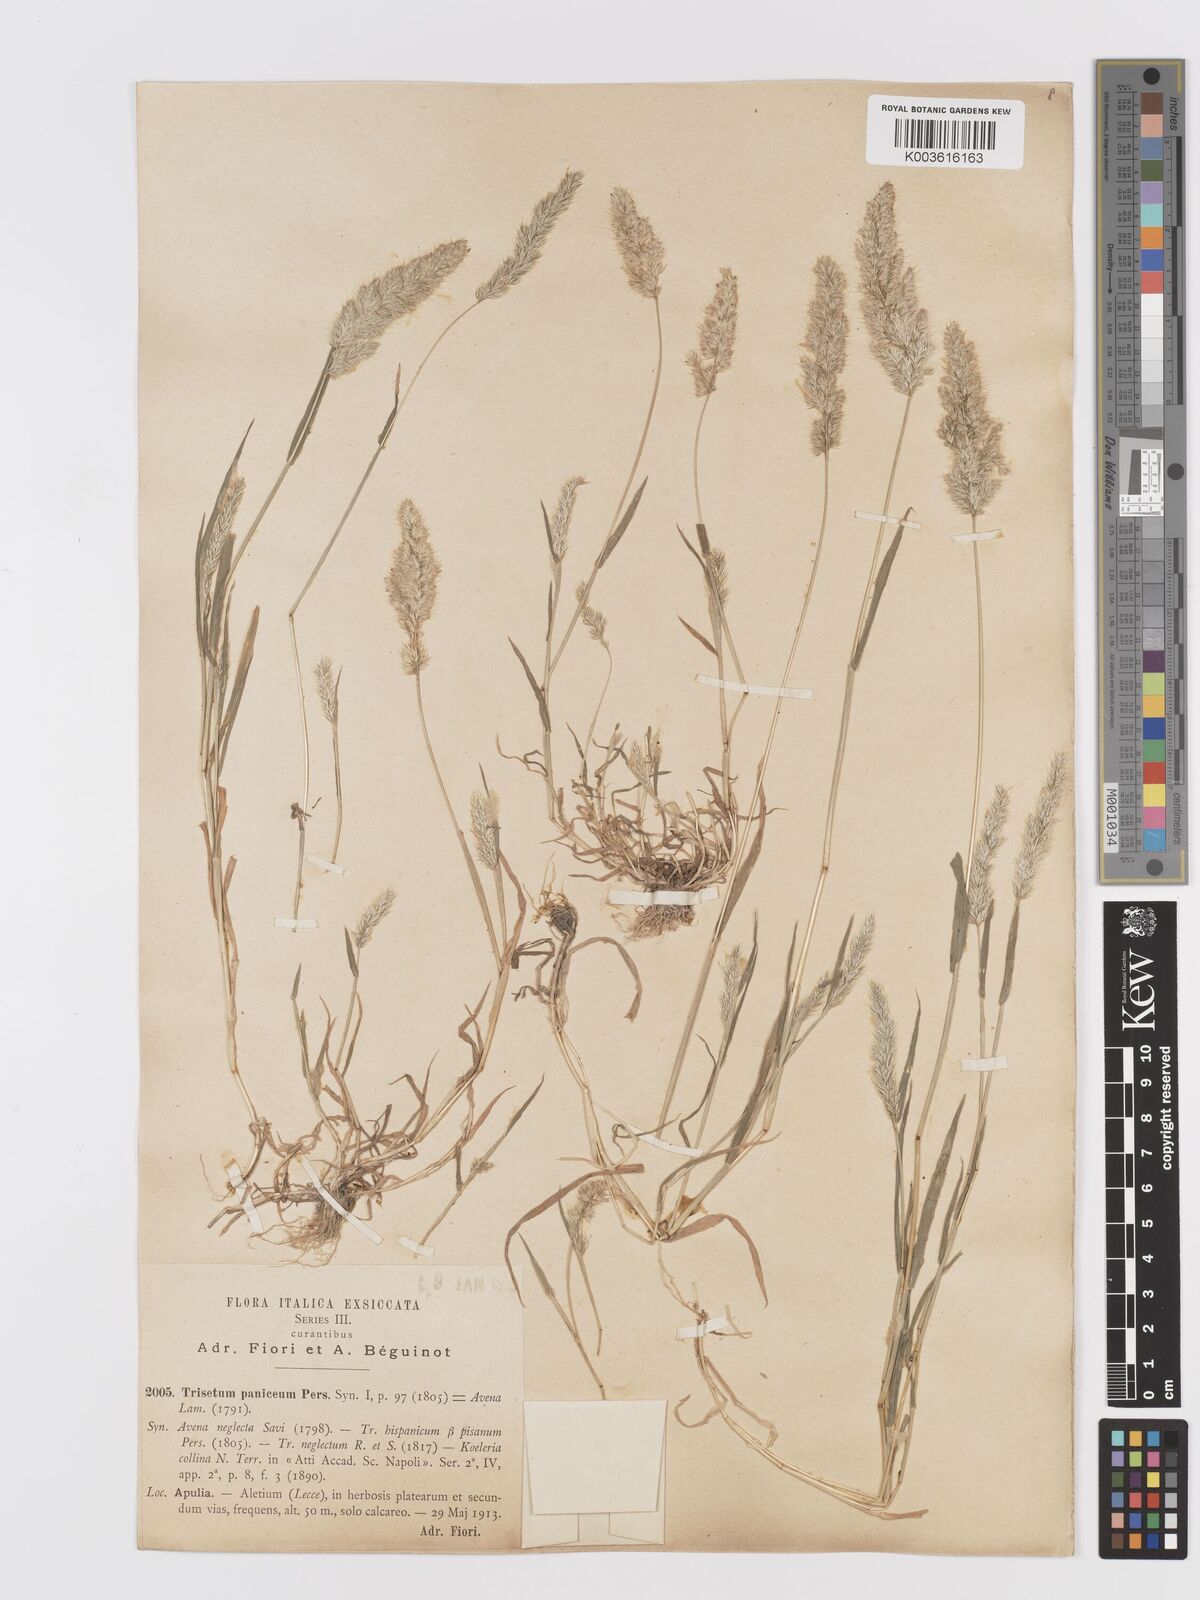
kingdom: Plantae
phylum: Tracheophyta
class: Liliopsida
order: Poales
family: Poaceae
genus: Trisetaria
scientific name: Trisetaria panicea
